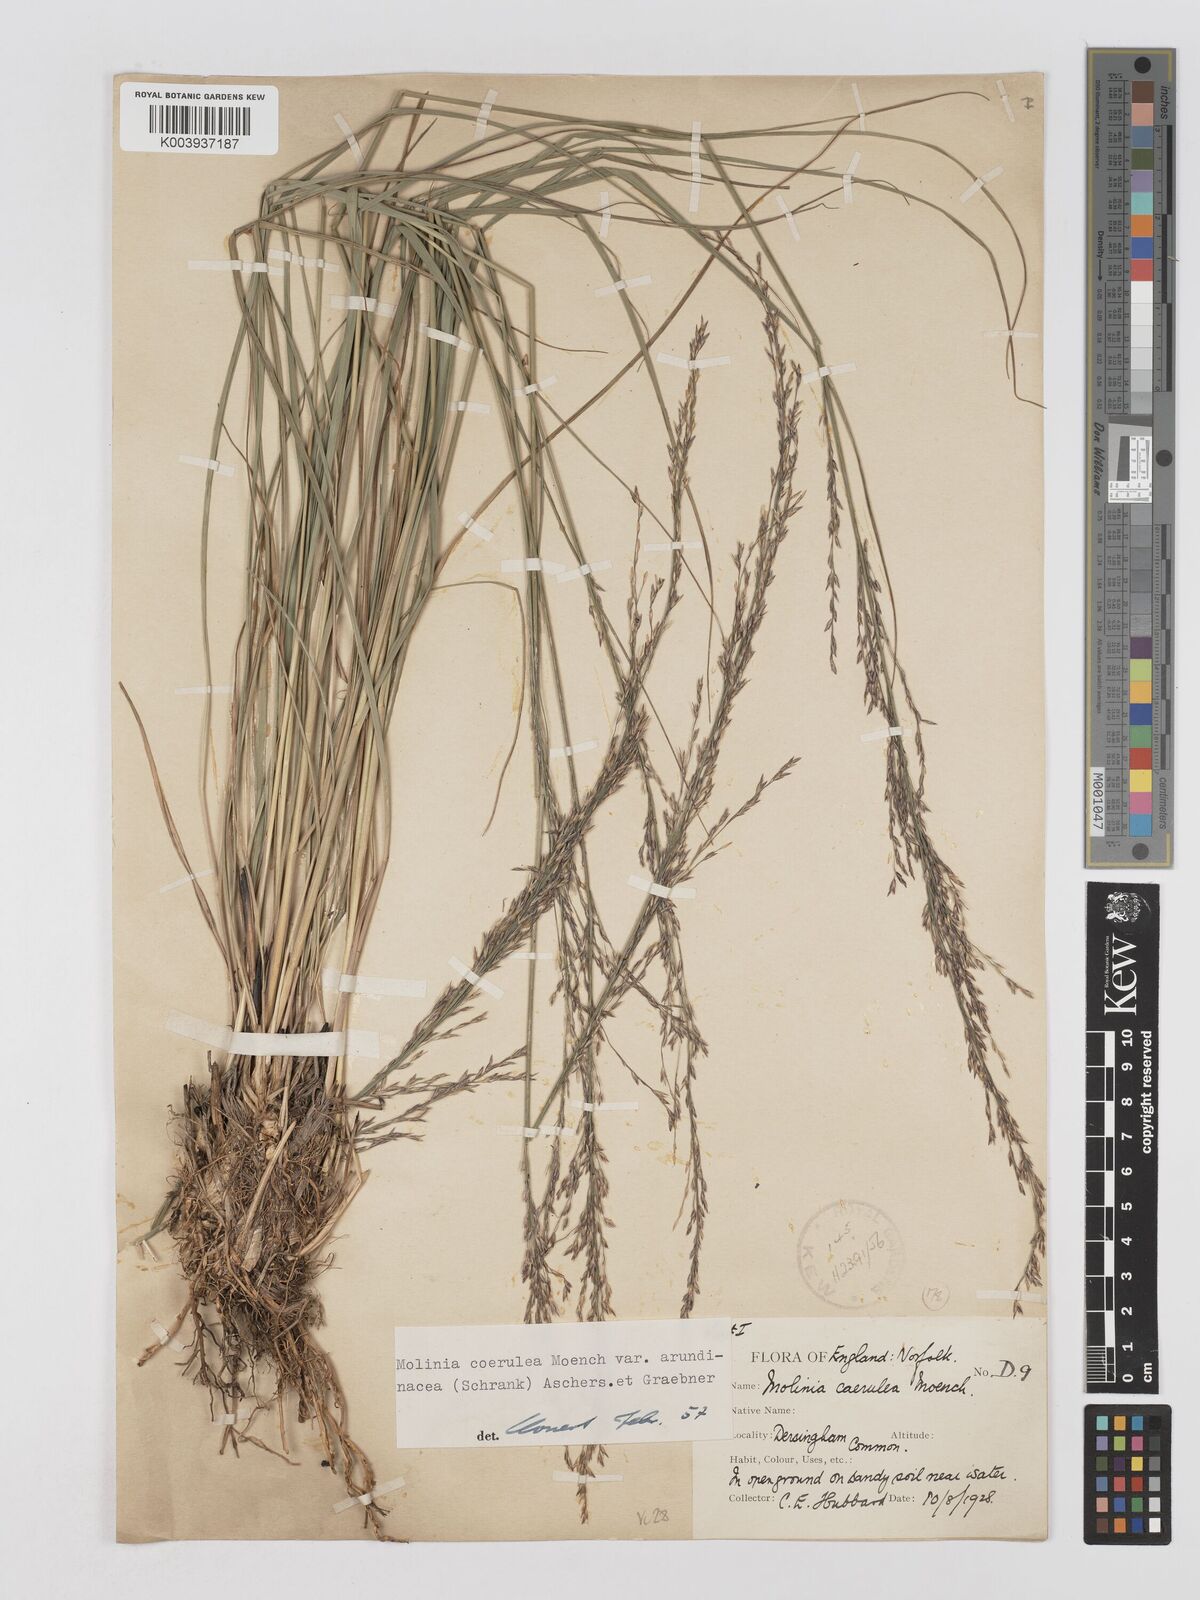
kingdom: Plantae
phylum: Tracheophyta
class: Liliopsida
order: Poales
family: Poaceae
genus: Molinia
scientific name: Molinia caerulea
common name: Purple moor-grass
